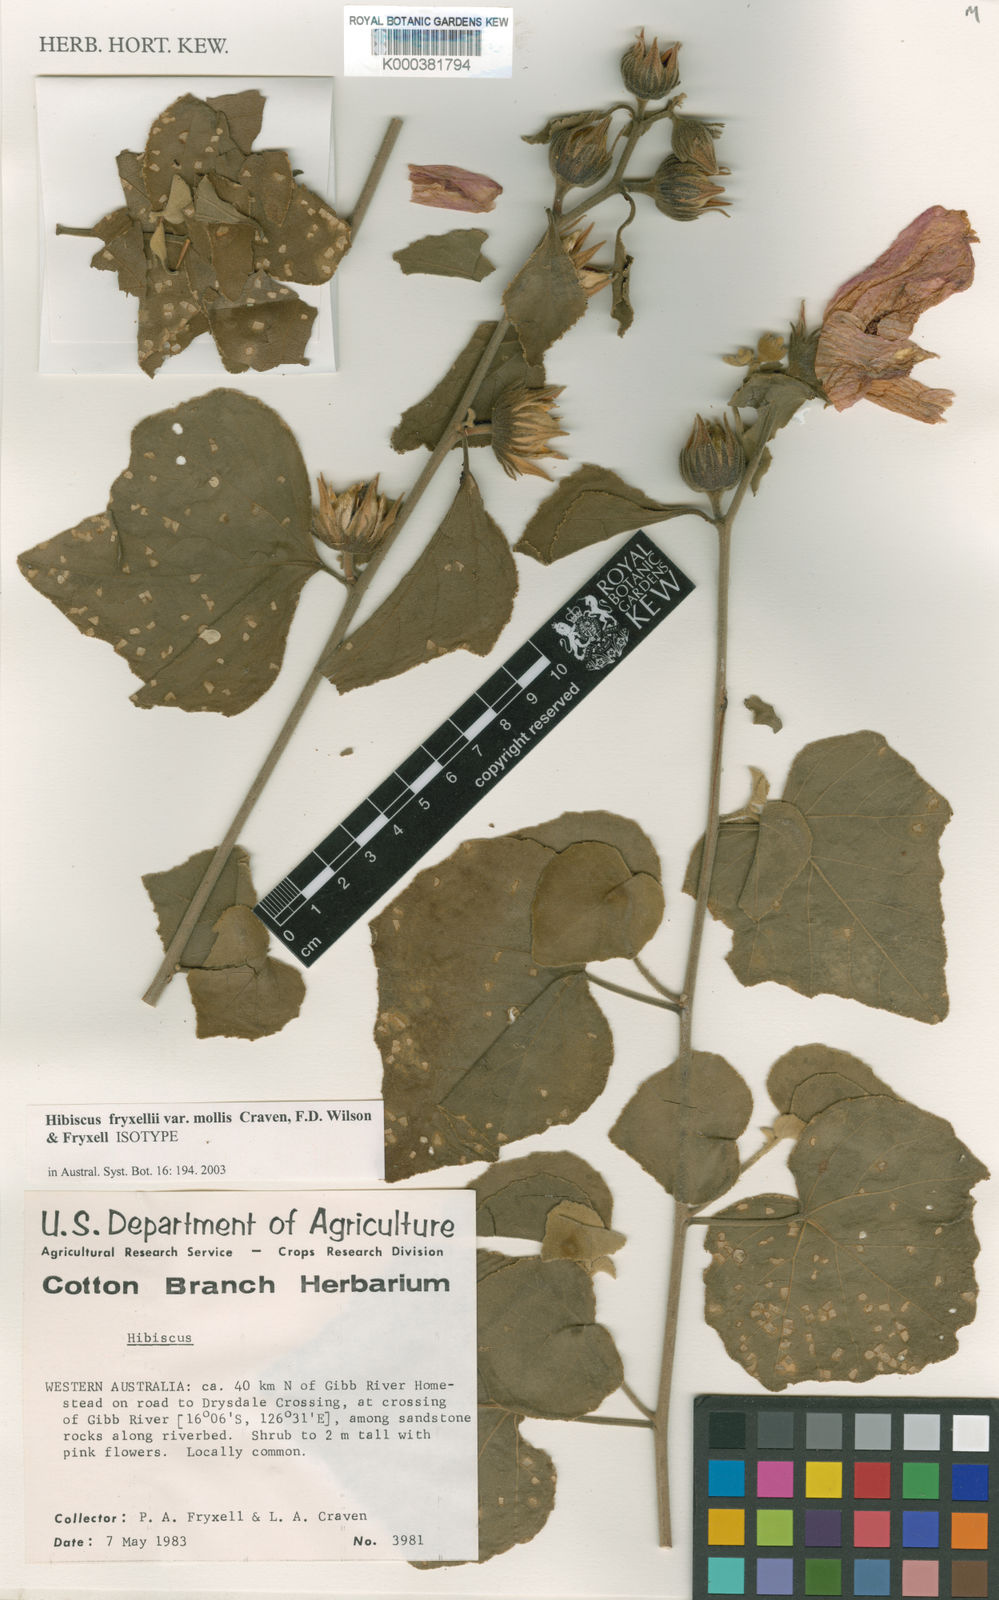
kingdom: Plantae
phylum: Tracheophyta
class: Magnoliopsida
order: Malvales
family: Malvaceae
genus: Hibiscus
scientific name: Hibiscus fryxellii
